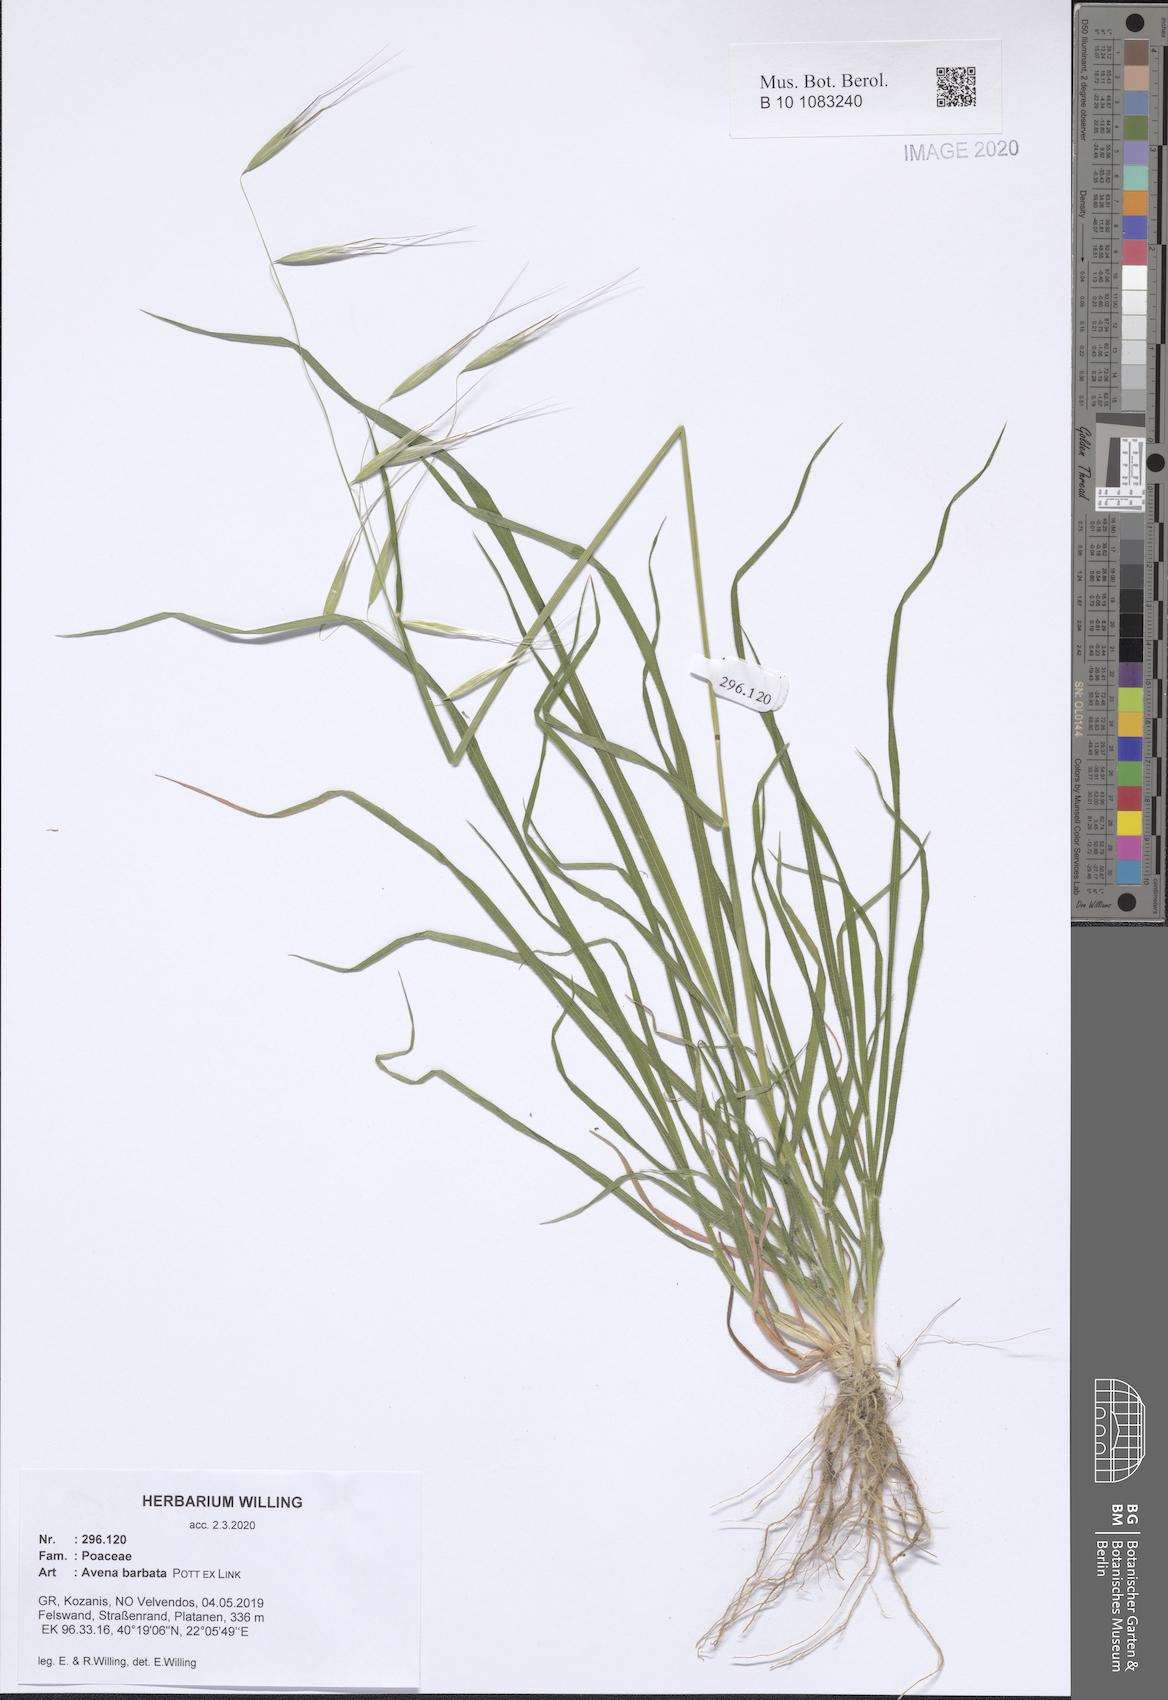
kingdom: Plantae
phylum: Tracheophyta
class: Liliopsida
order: Poales
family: Poaceae
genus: Avena
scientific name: Avena barbata
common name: Slender oat
